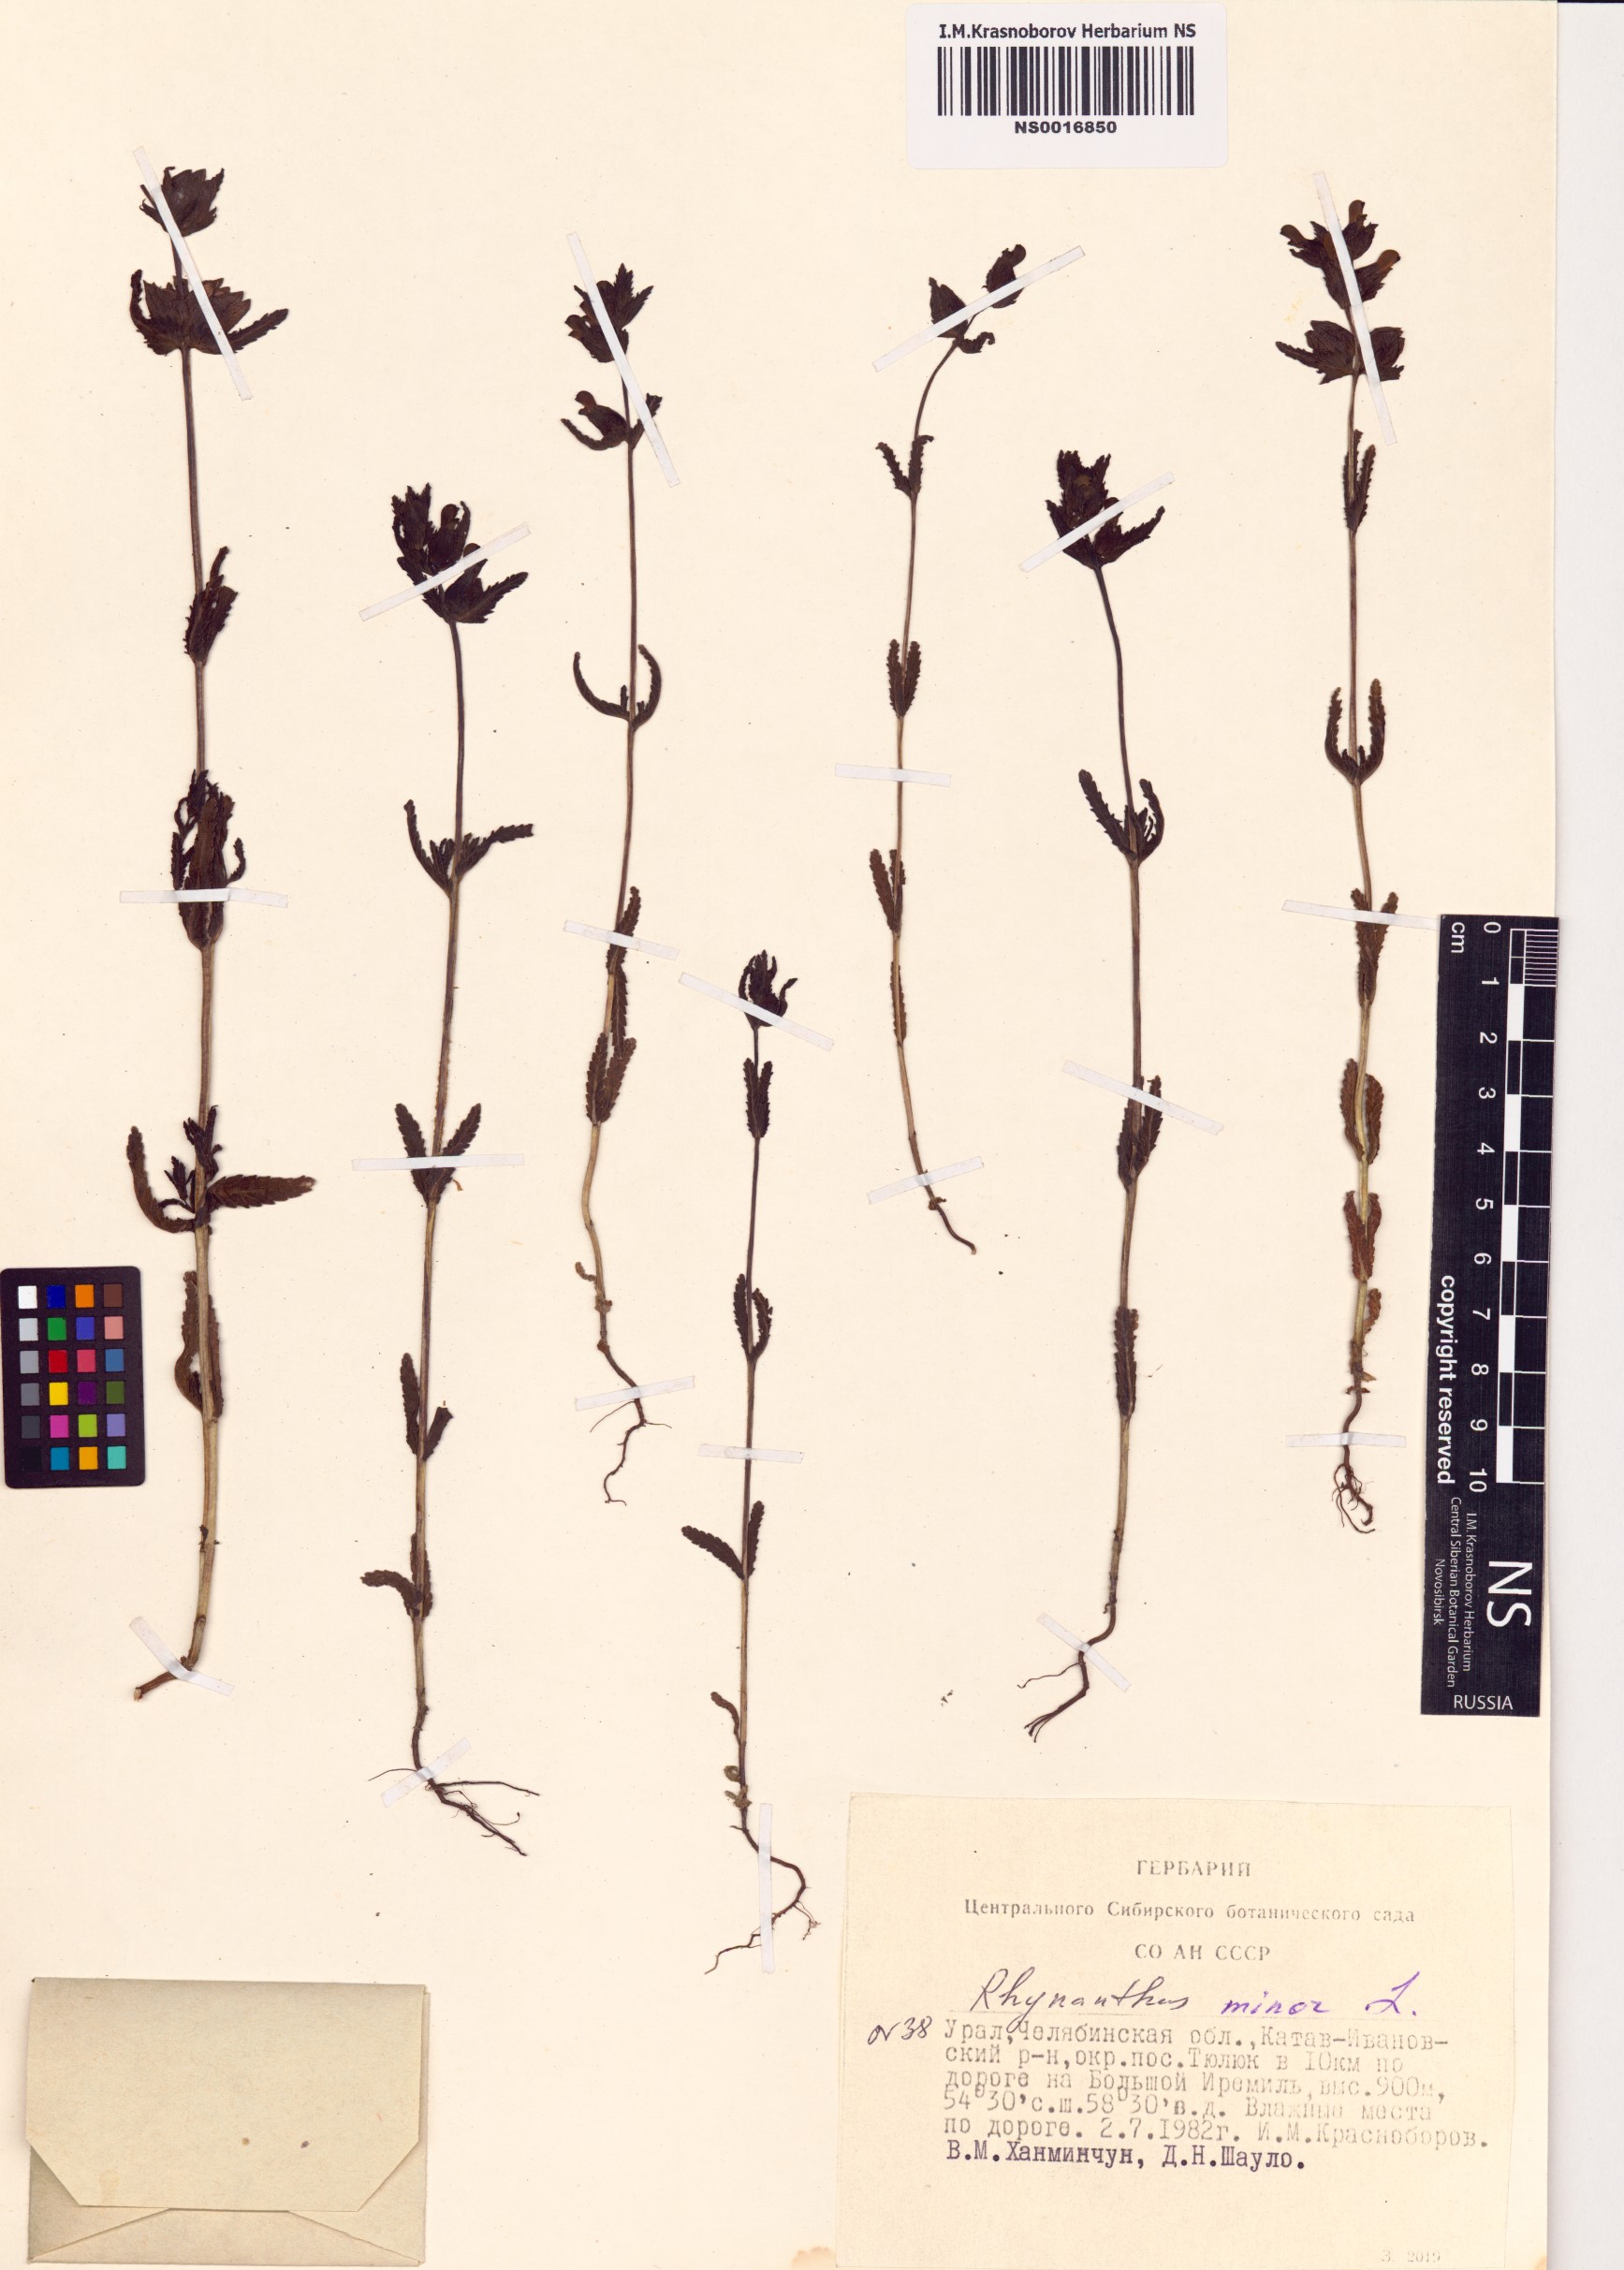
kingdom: Plantae
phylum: Tracheophyta
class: Magnoliopsida
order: Lamiales
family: Orobanchaceae
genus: Rhinanthus
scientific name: Rhinanthus minor
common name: Yellow-rattle
